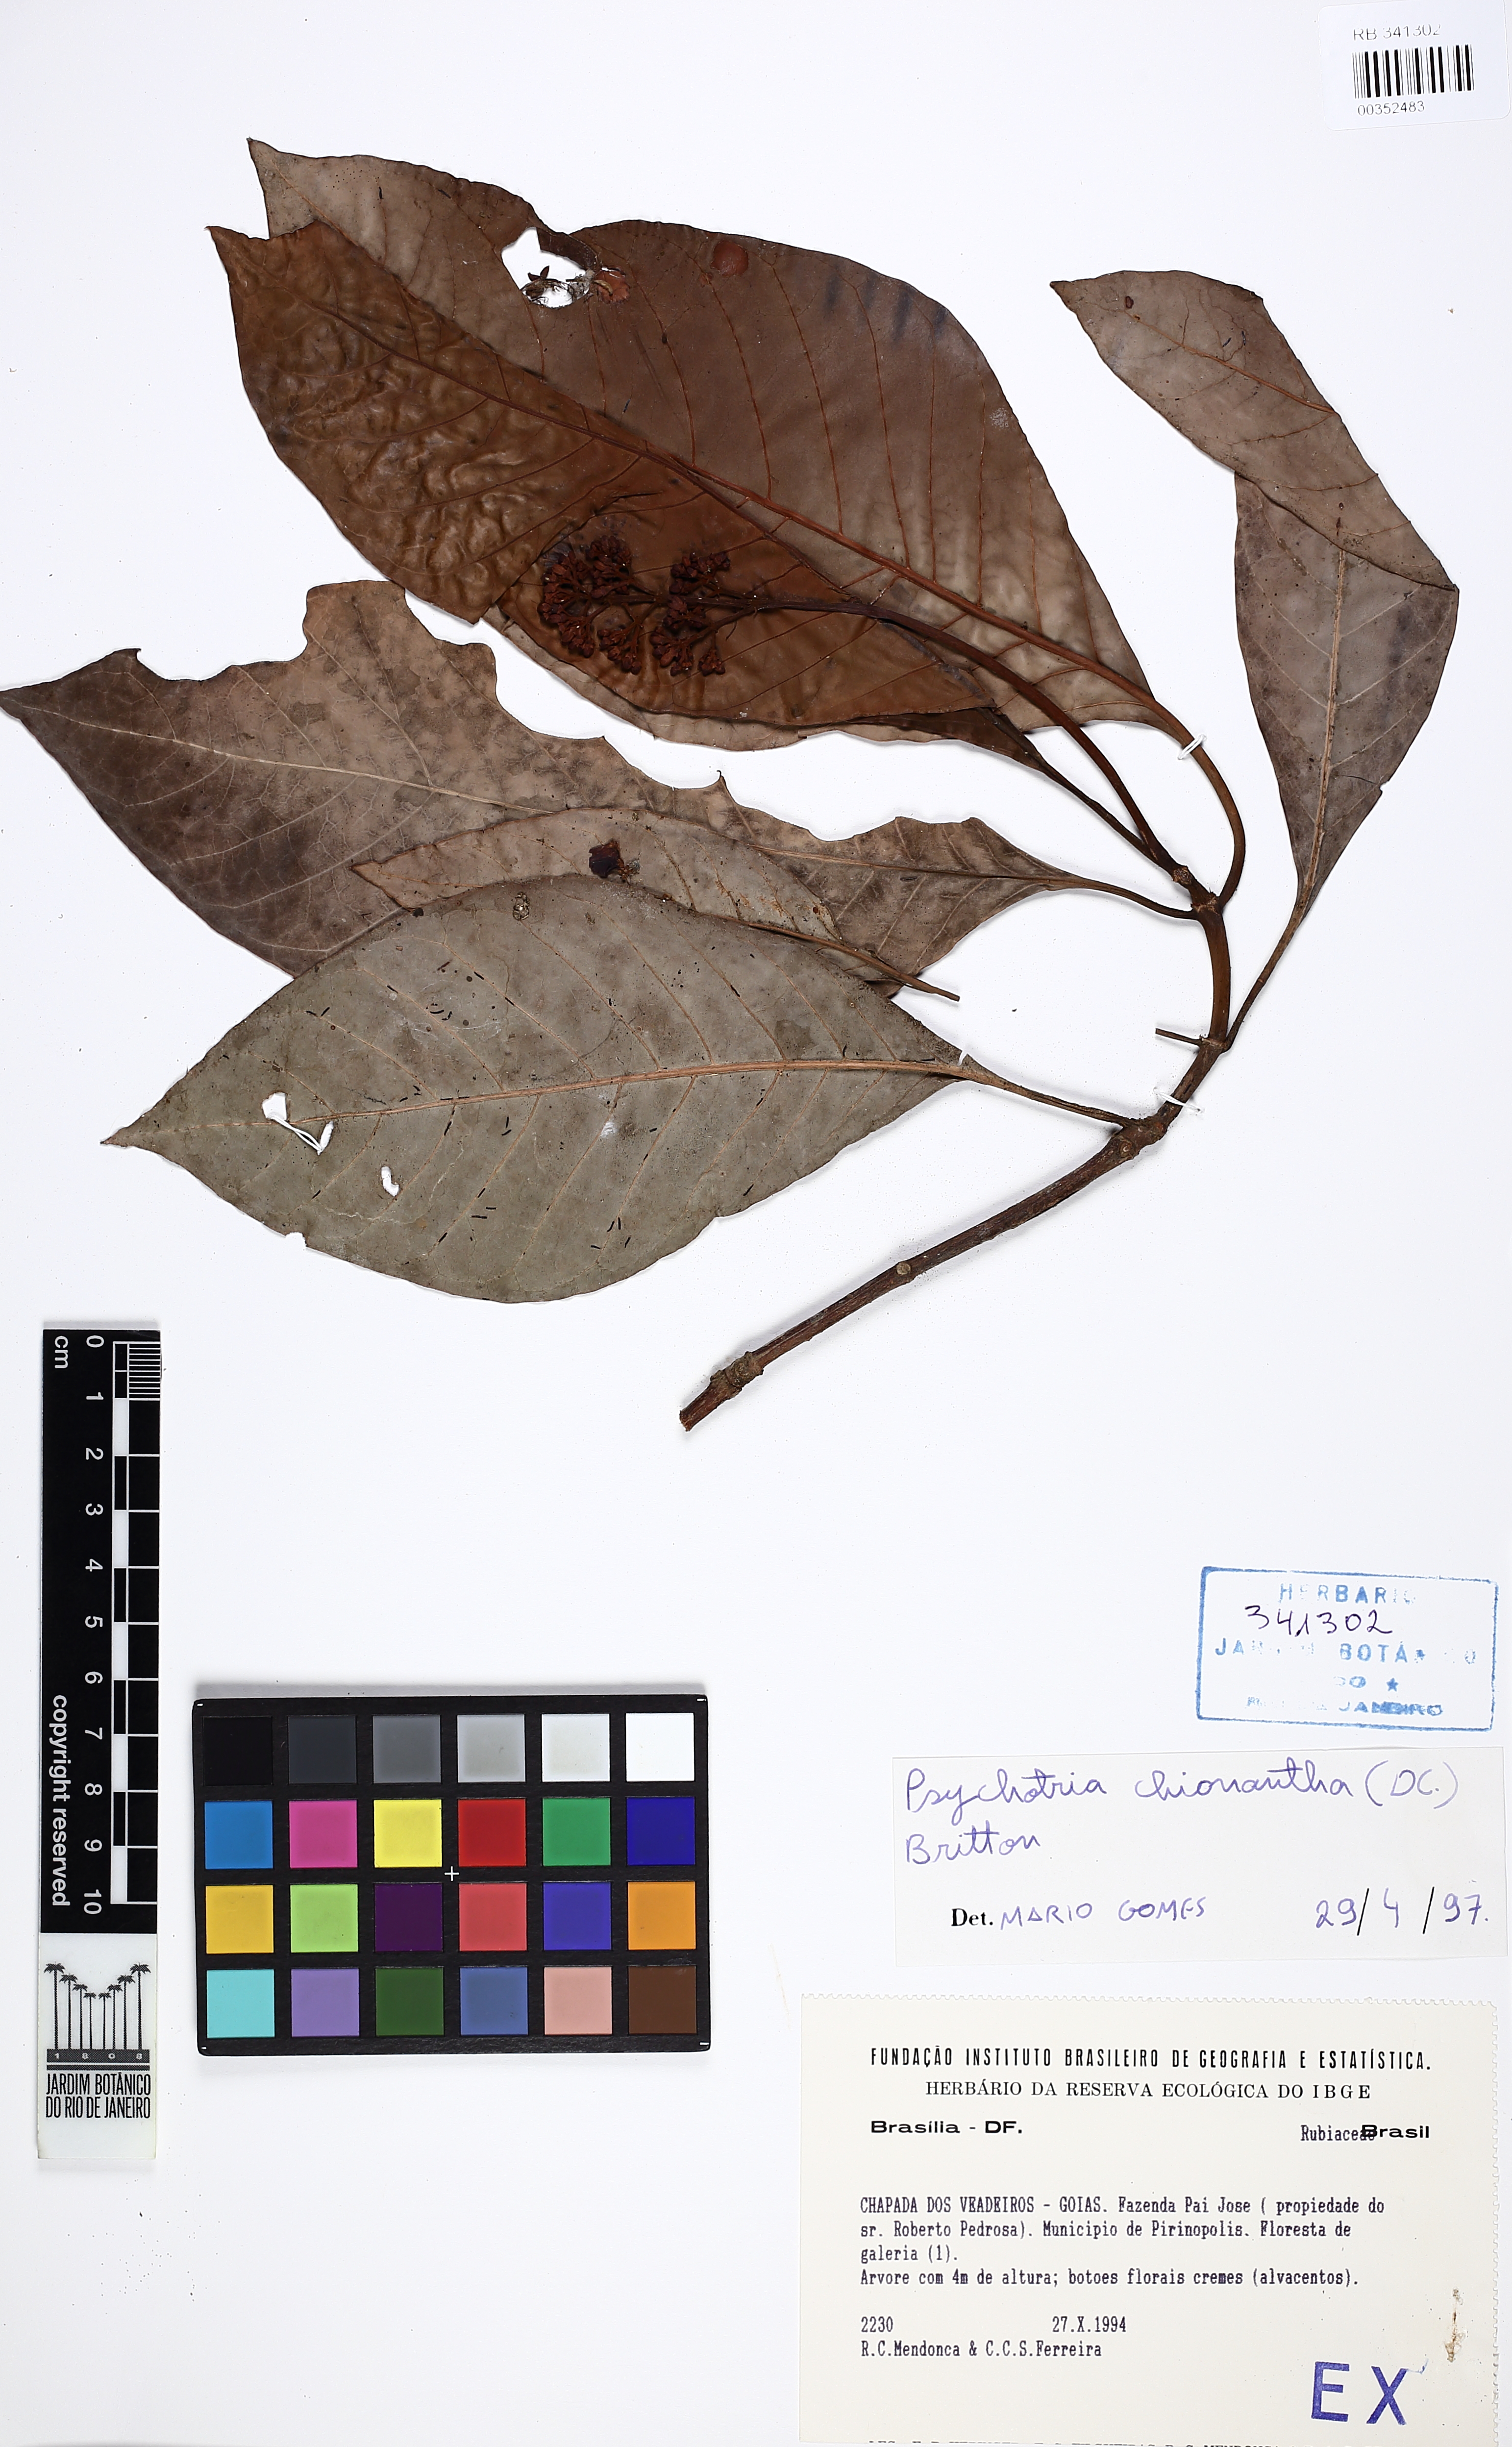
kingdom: Plantae
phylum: Tracheophyta
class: Magnoliopsida
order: Gentianales
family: Rubiaceae
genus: Psychotria
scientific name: Psychotria pedunculosa
